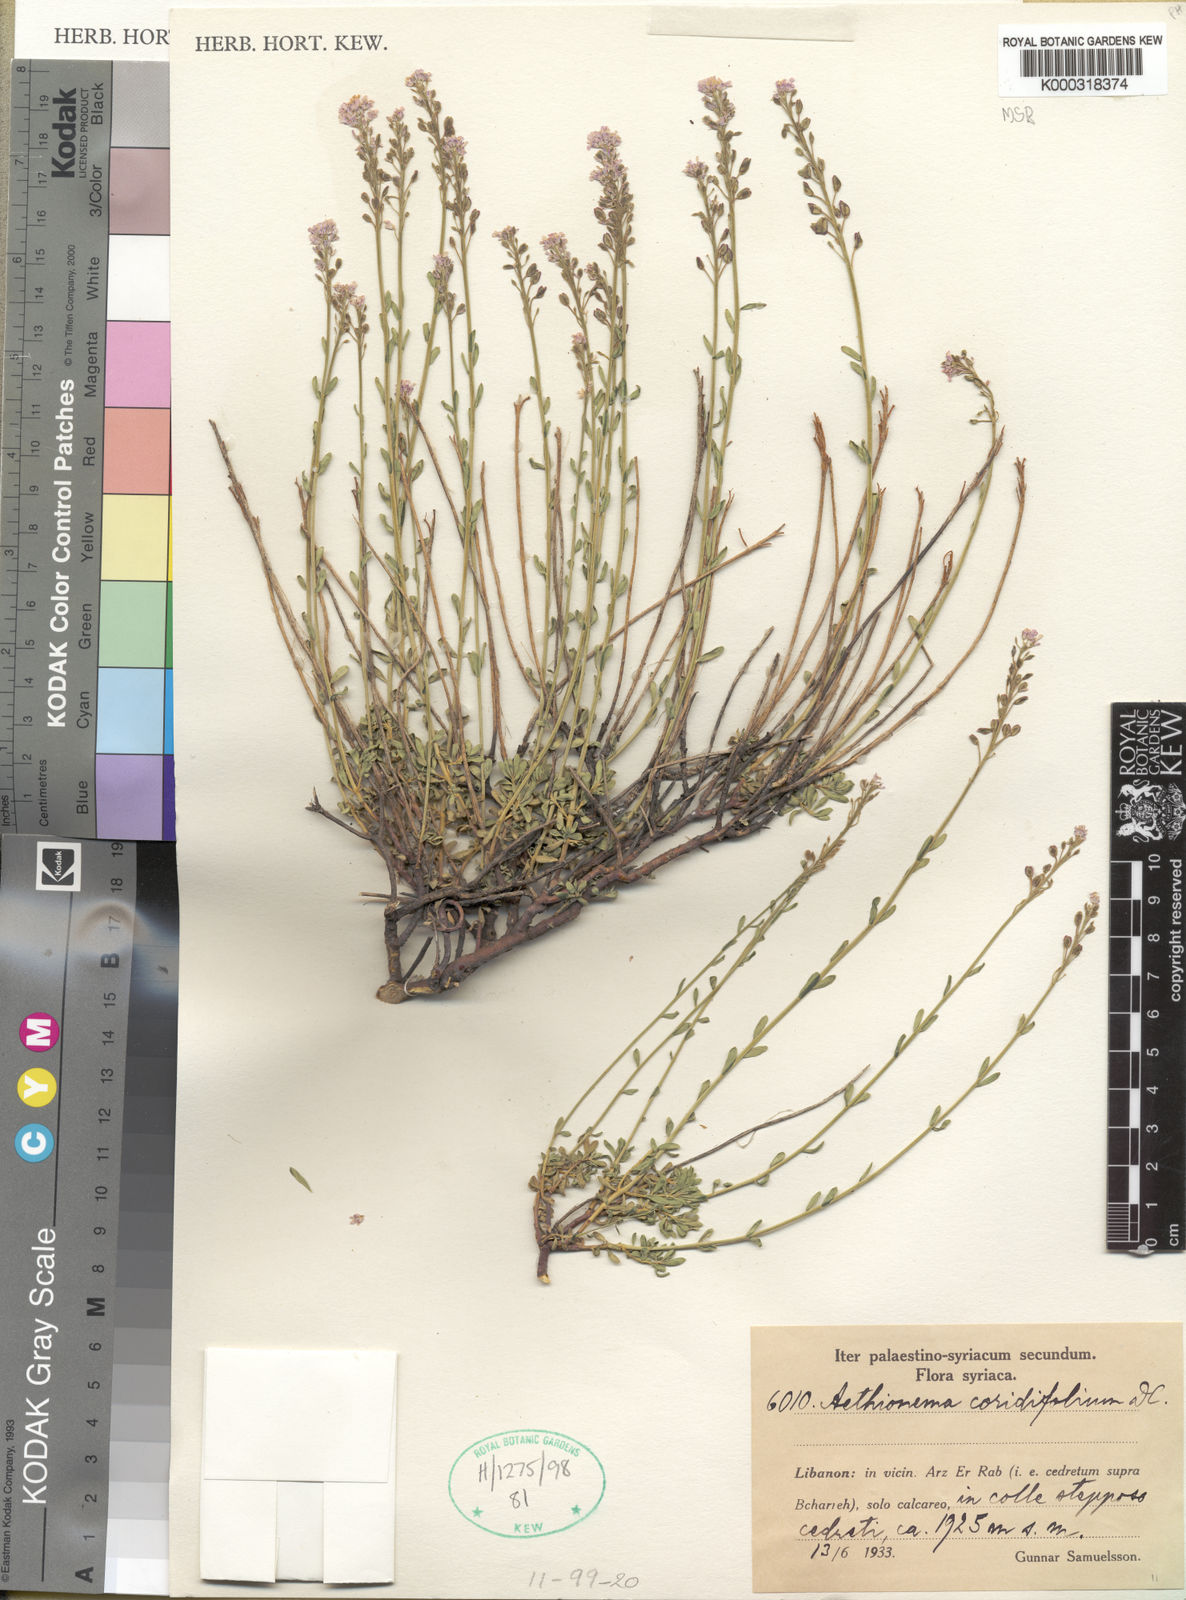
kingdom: Plantae
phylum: Tracheophyta
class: Magnoliopsida
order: Brassicales
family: Brassicaceae
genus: Aethionema
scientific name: Aethionema coridifolium
